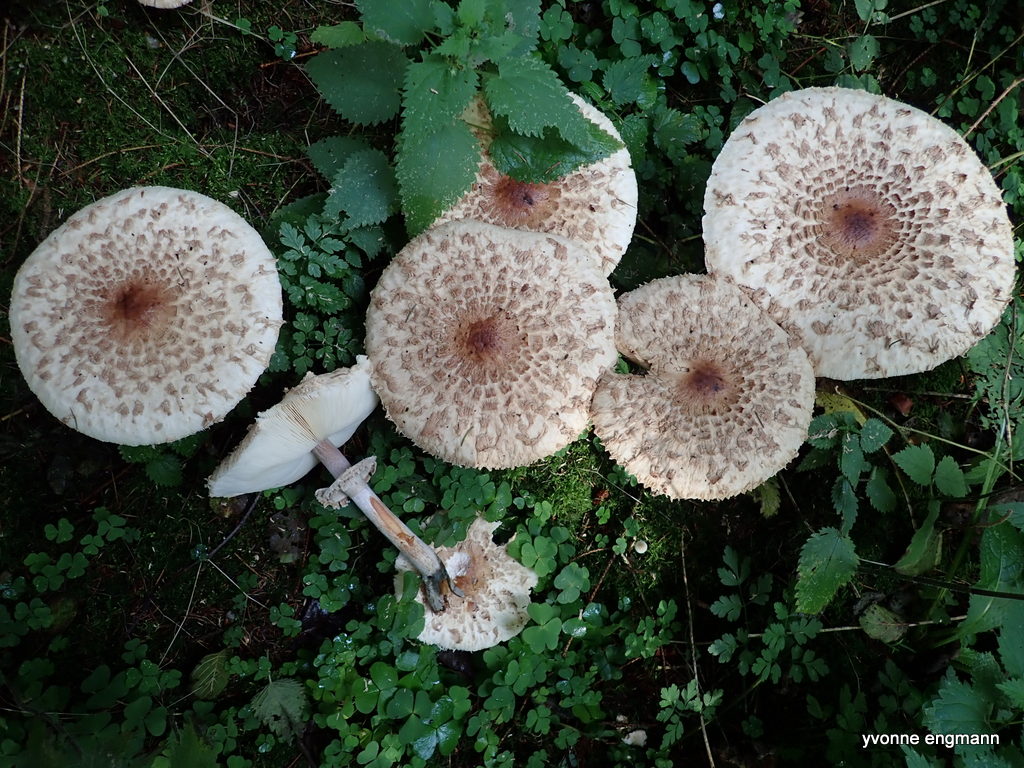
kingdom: Fungi
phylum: Basidiomycota
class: Agaricomycetes
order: Agaricales
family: Agaricaceae
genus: Chlorophyllum
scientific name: Chlorophyllum
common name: rabarberhat
